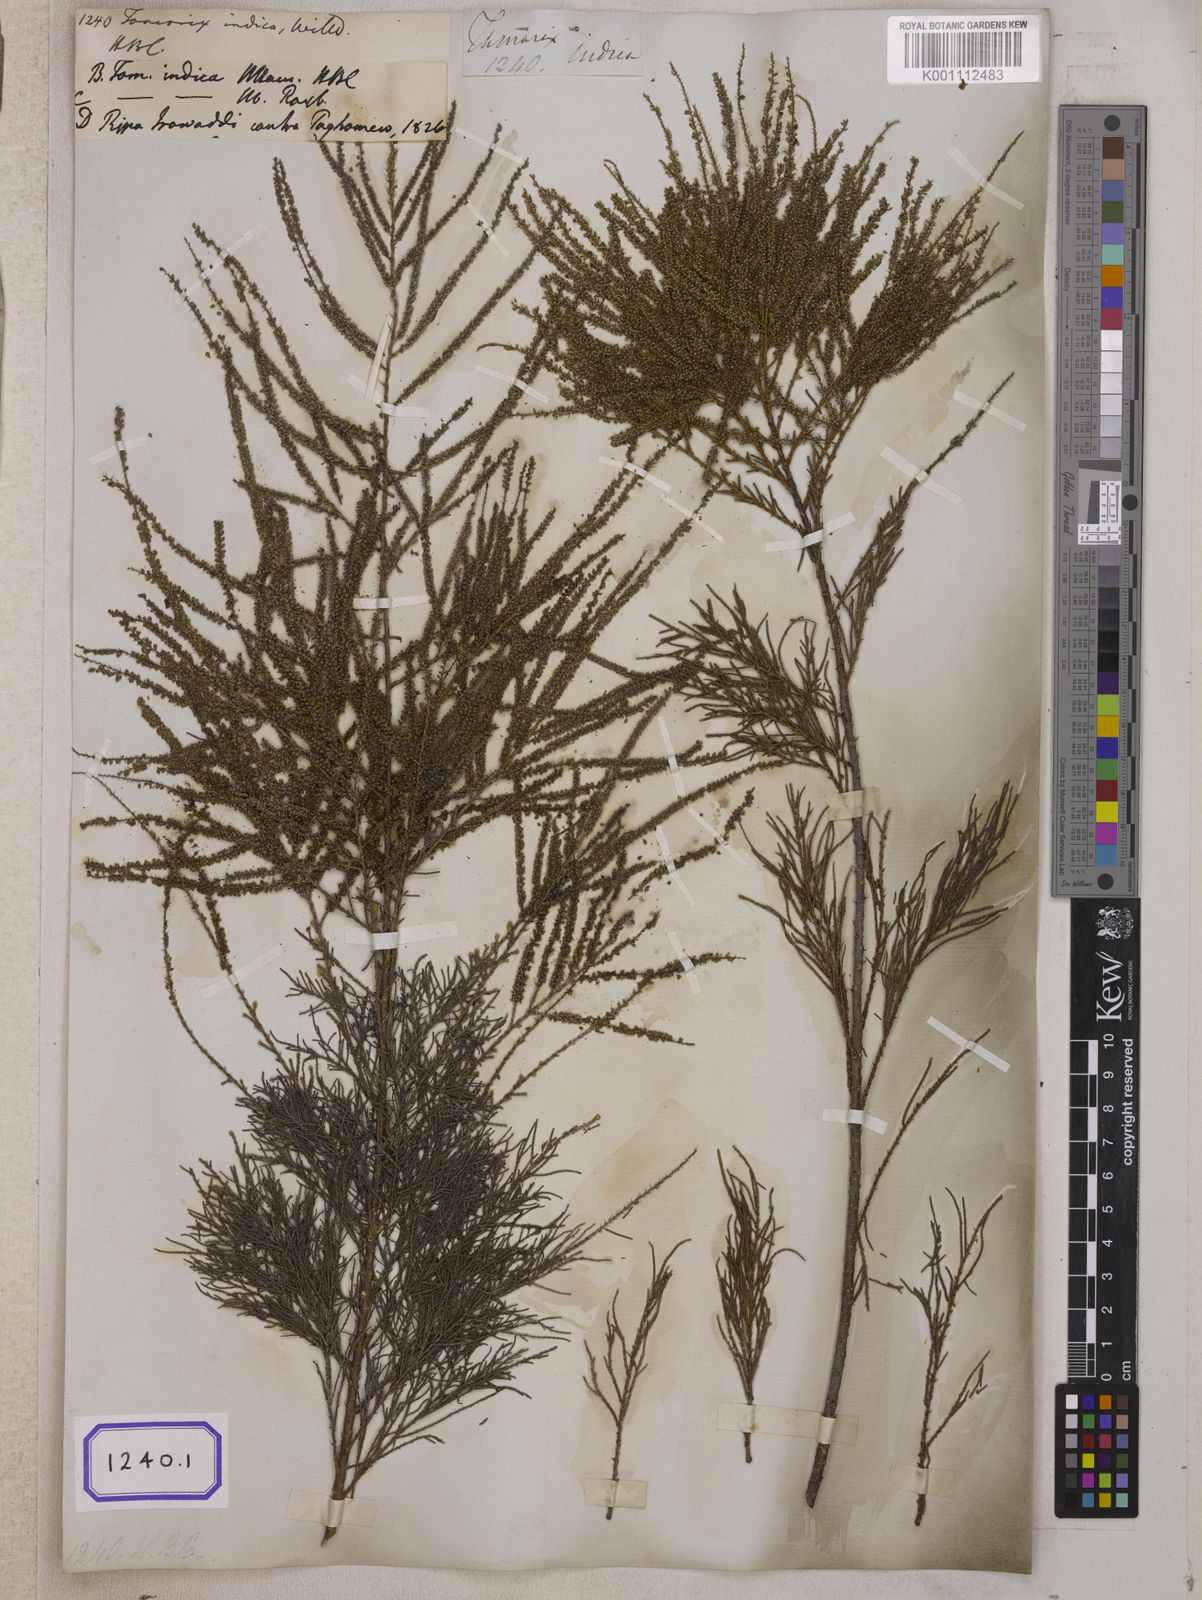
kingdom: Plantae
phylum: Tracheophyta
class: Magnoliopsida
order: Caryophyllales
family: Tamaricaceae
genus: Tamarix
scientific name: Tamarix indica
